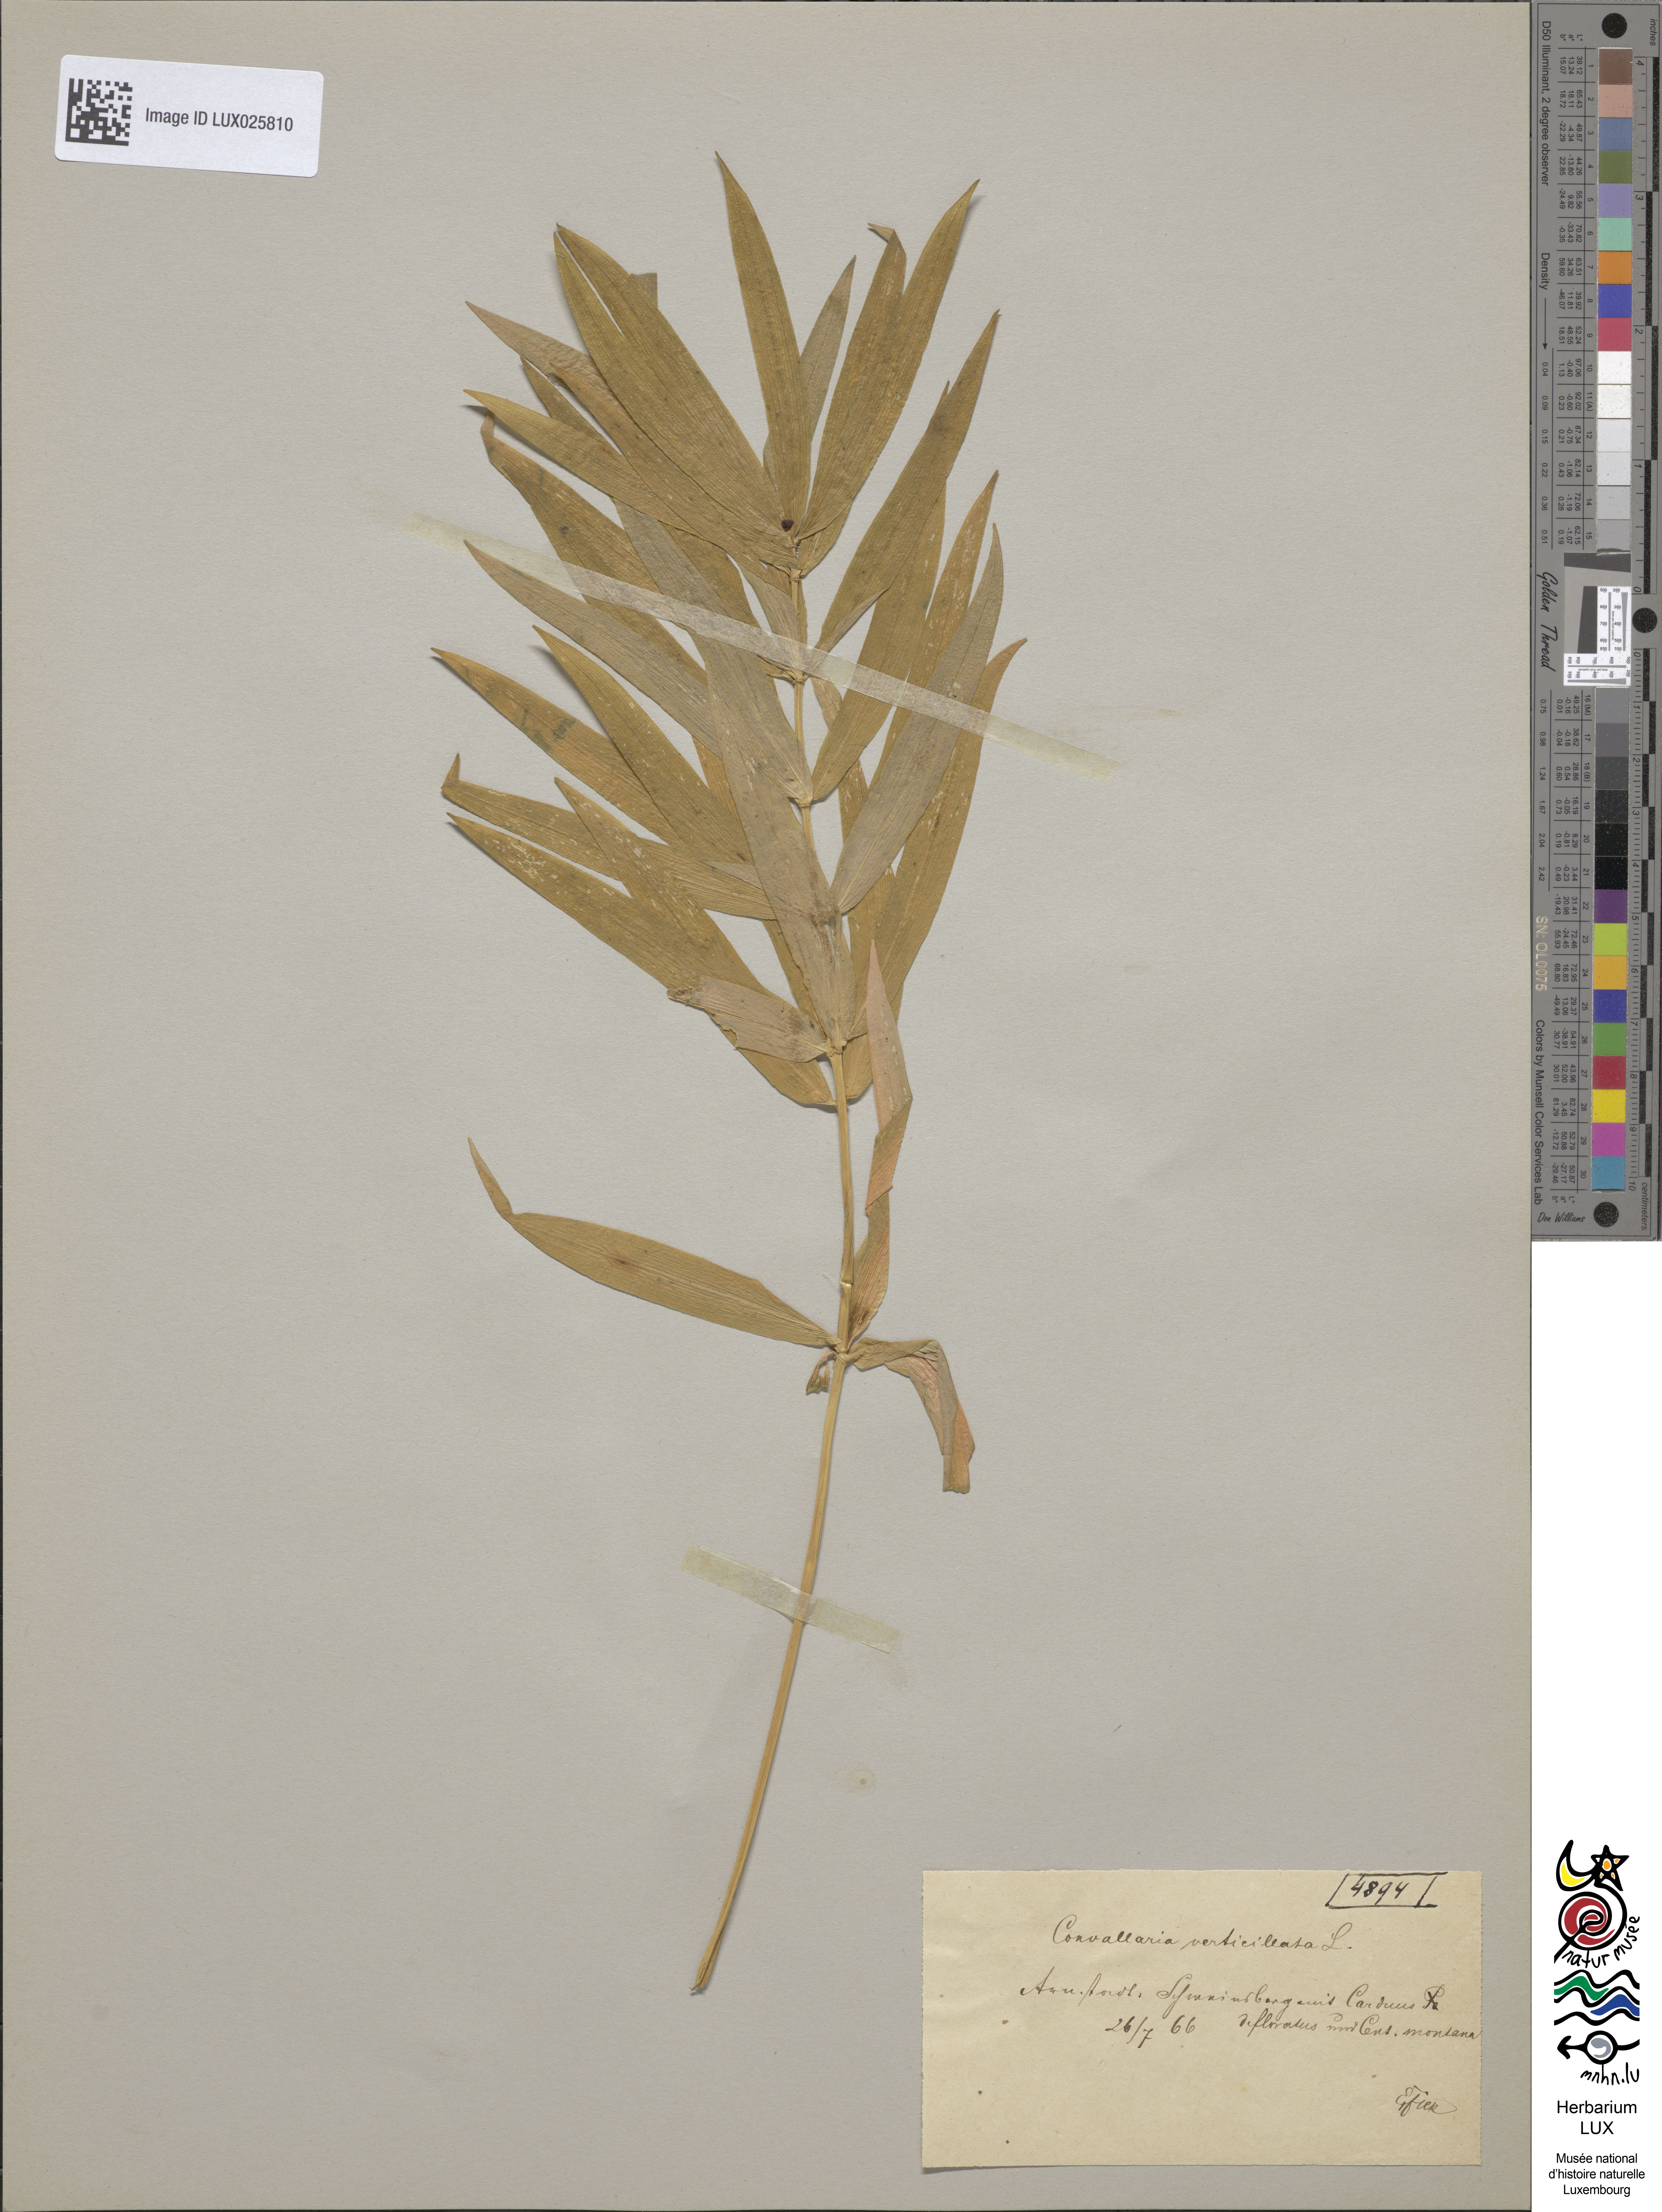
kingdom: Plantae
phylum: Tracheophyta
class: Liliopsida
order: Asparagales
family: Asparagaceae
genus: Polygonatum
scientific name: Polygonatum verticillatum
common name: Whorled solomon's-seal
